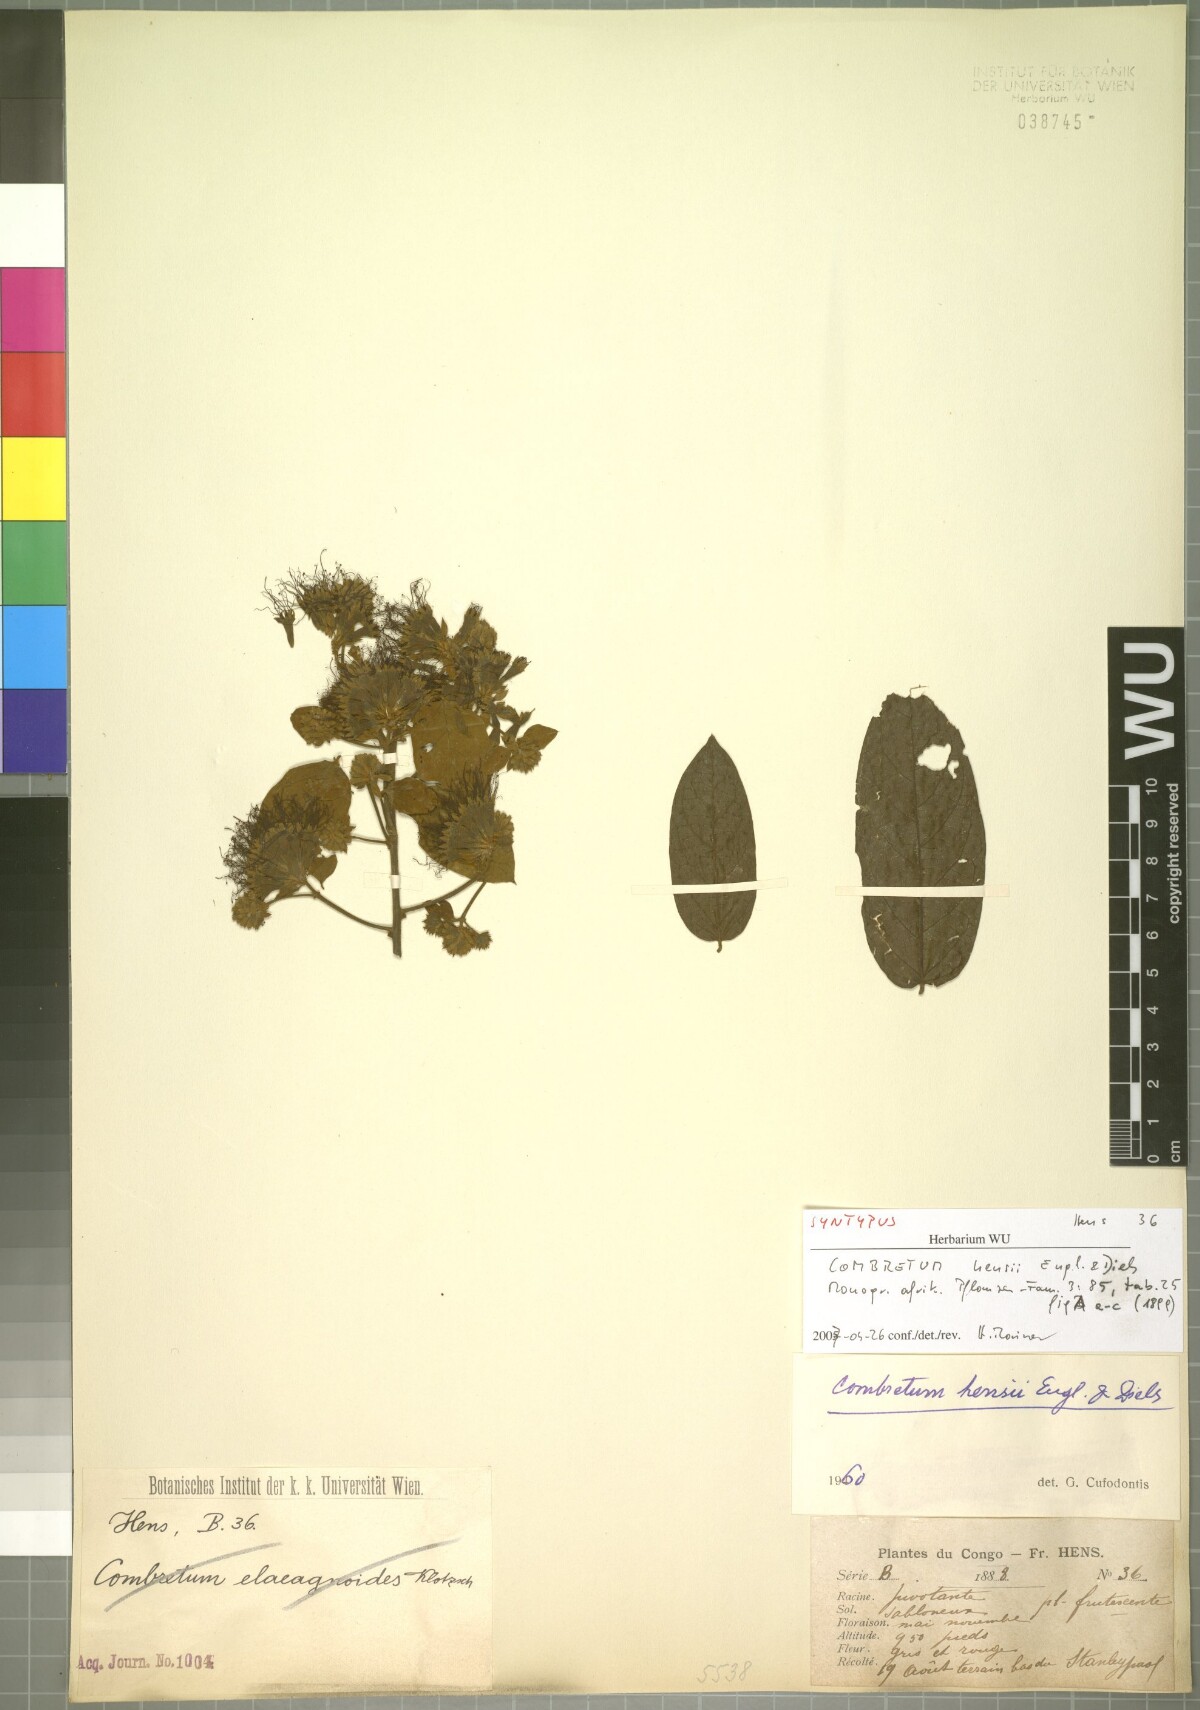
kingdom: Plantae
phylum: Tracheophyta
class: Magnoliopsida
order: Myrtales
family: Combretaceae
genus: Combretum
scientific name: Combretum hensii
